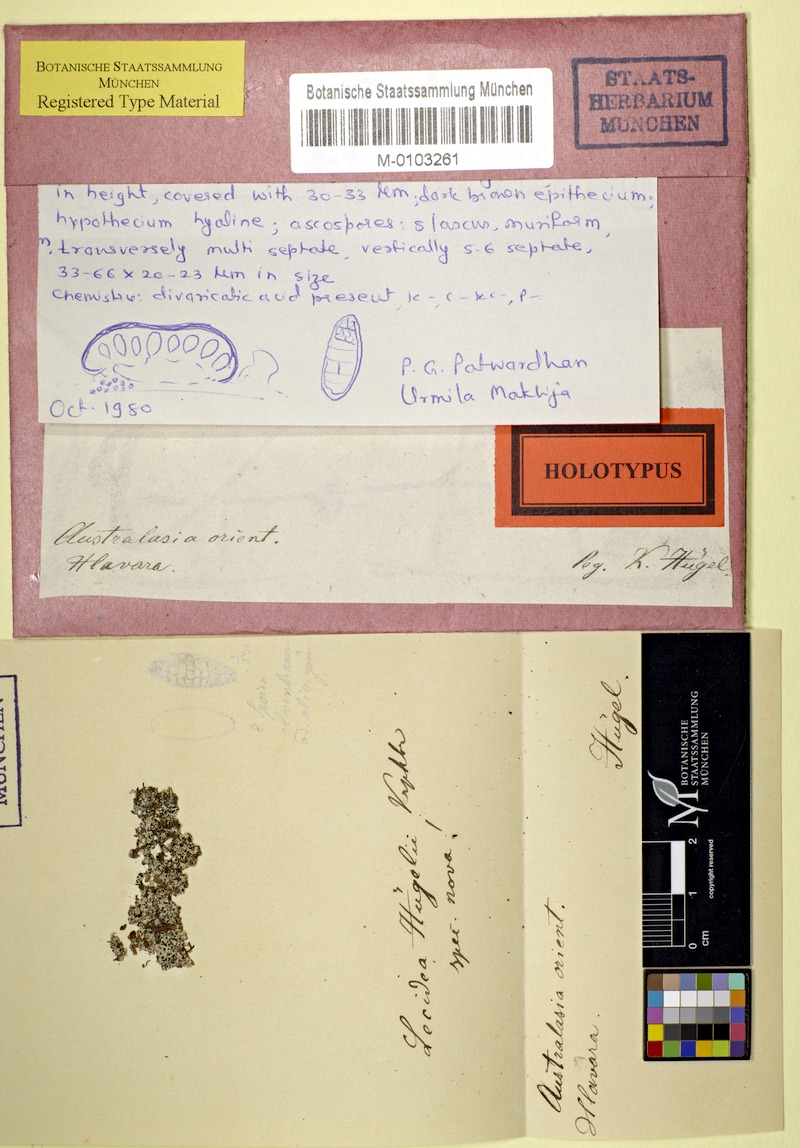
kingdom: Fungi
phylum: Ascomycota
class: Arthoniomycetes
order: Arthoniales
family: Arthoniaceae
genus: Arthothelium
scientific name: Arthothelium huegelii
